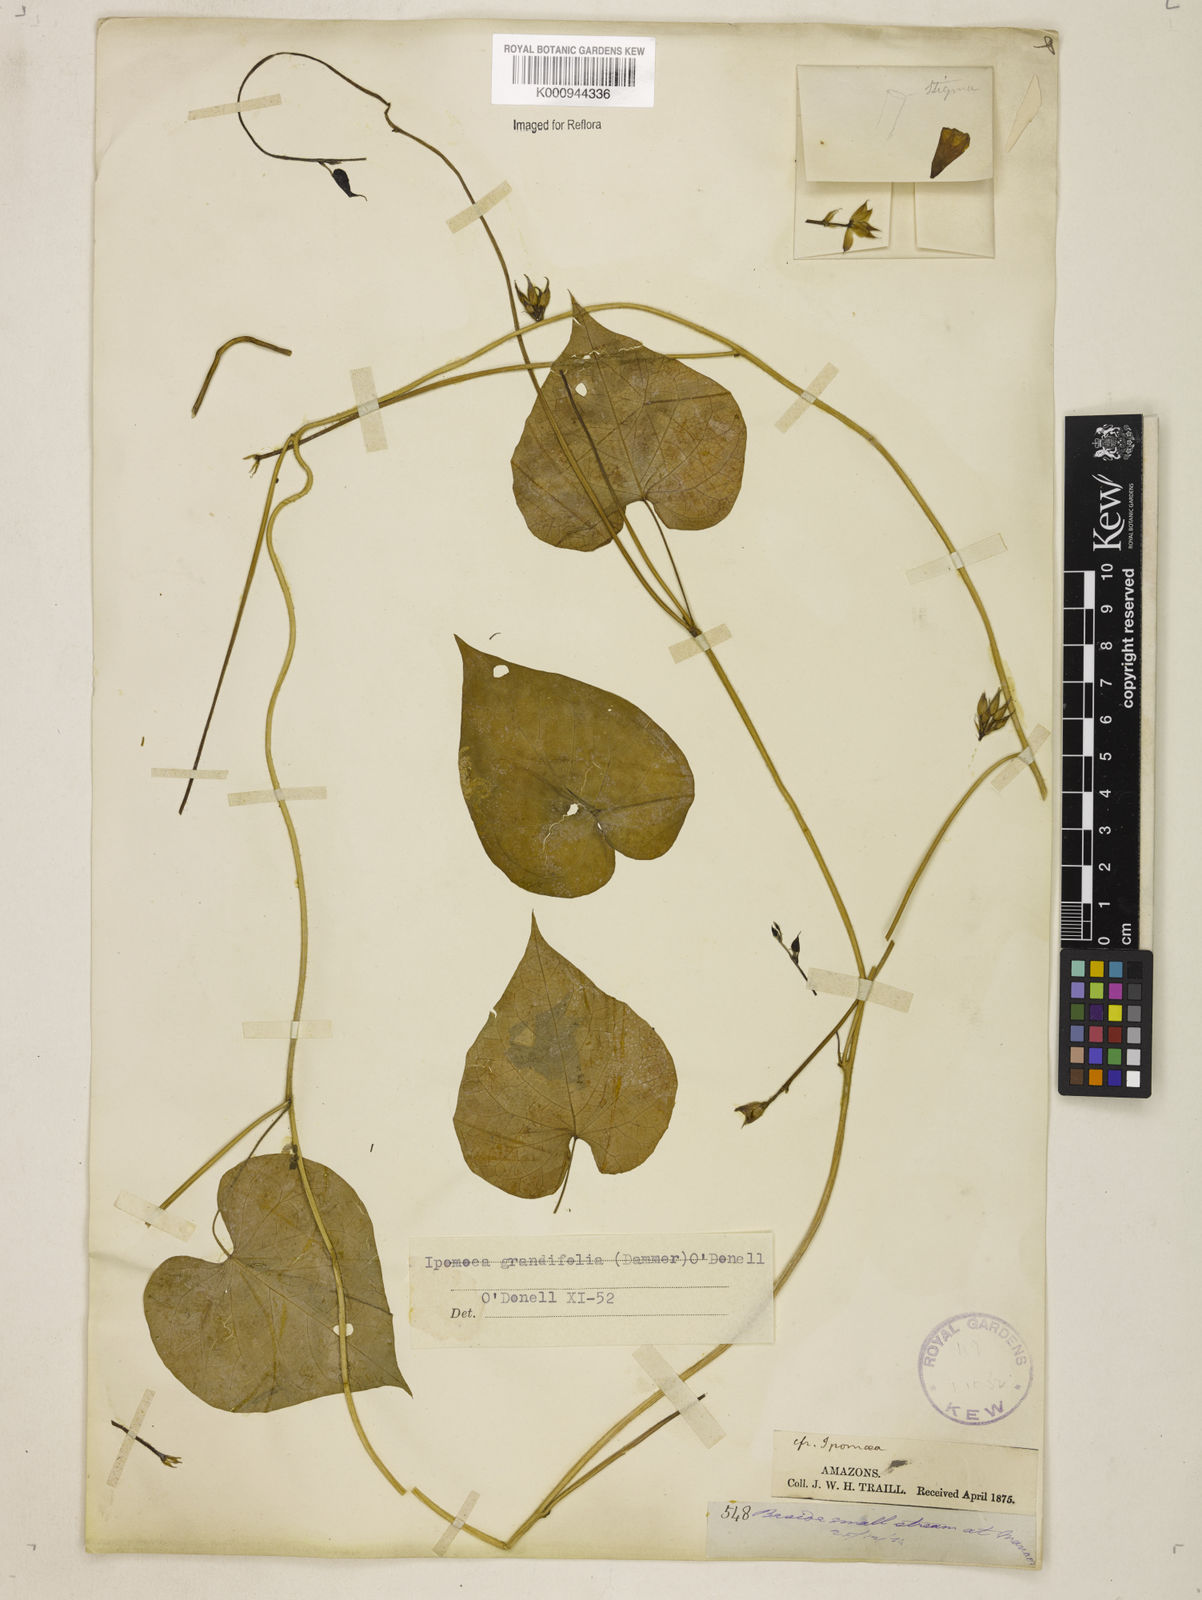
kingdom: Plantae
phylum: Tracheophyta
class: Magnoliopsida
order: Solanales
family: Convolvulaceae
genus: Ipomoea
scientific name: Ipomoea grandifolia
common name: Aiea morning glory
